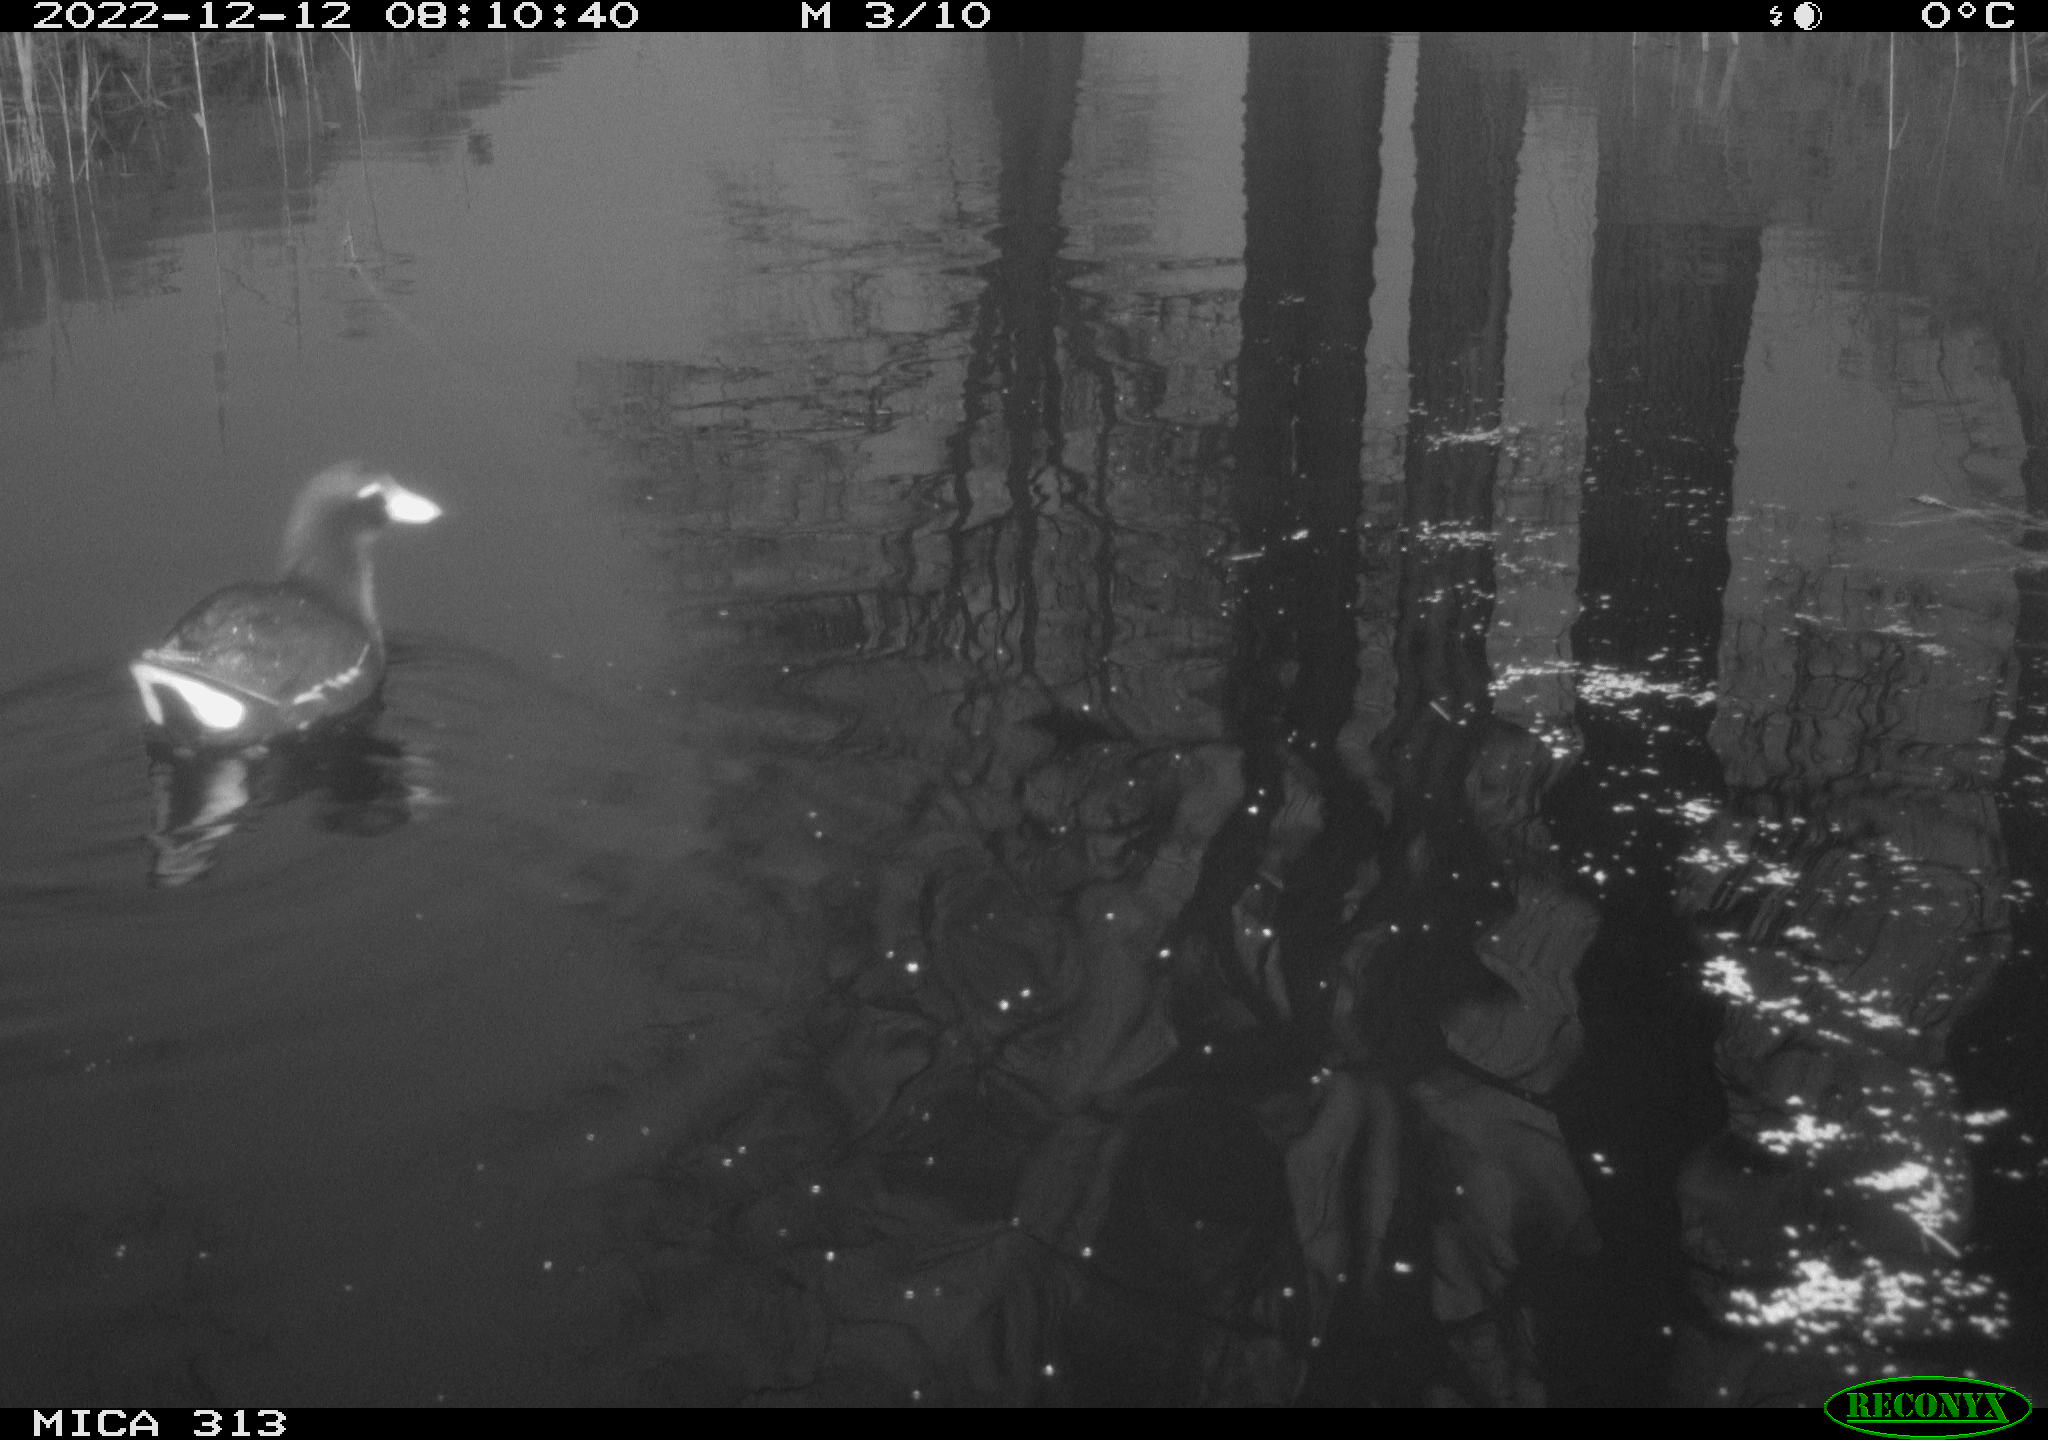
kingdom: Animalia
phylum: Chordata
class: Aves
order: Gruiformes
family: Rallidae
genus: Gallinula
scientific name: Gallinula chloropus
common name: Common moorhen
